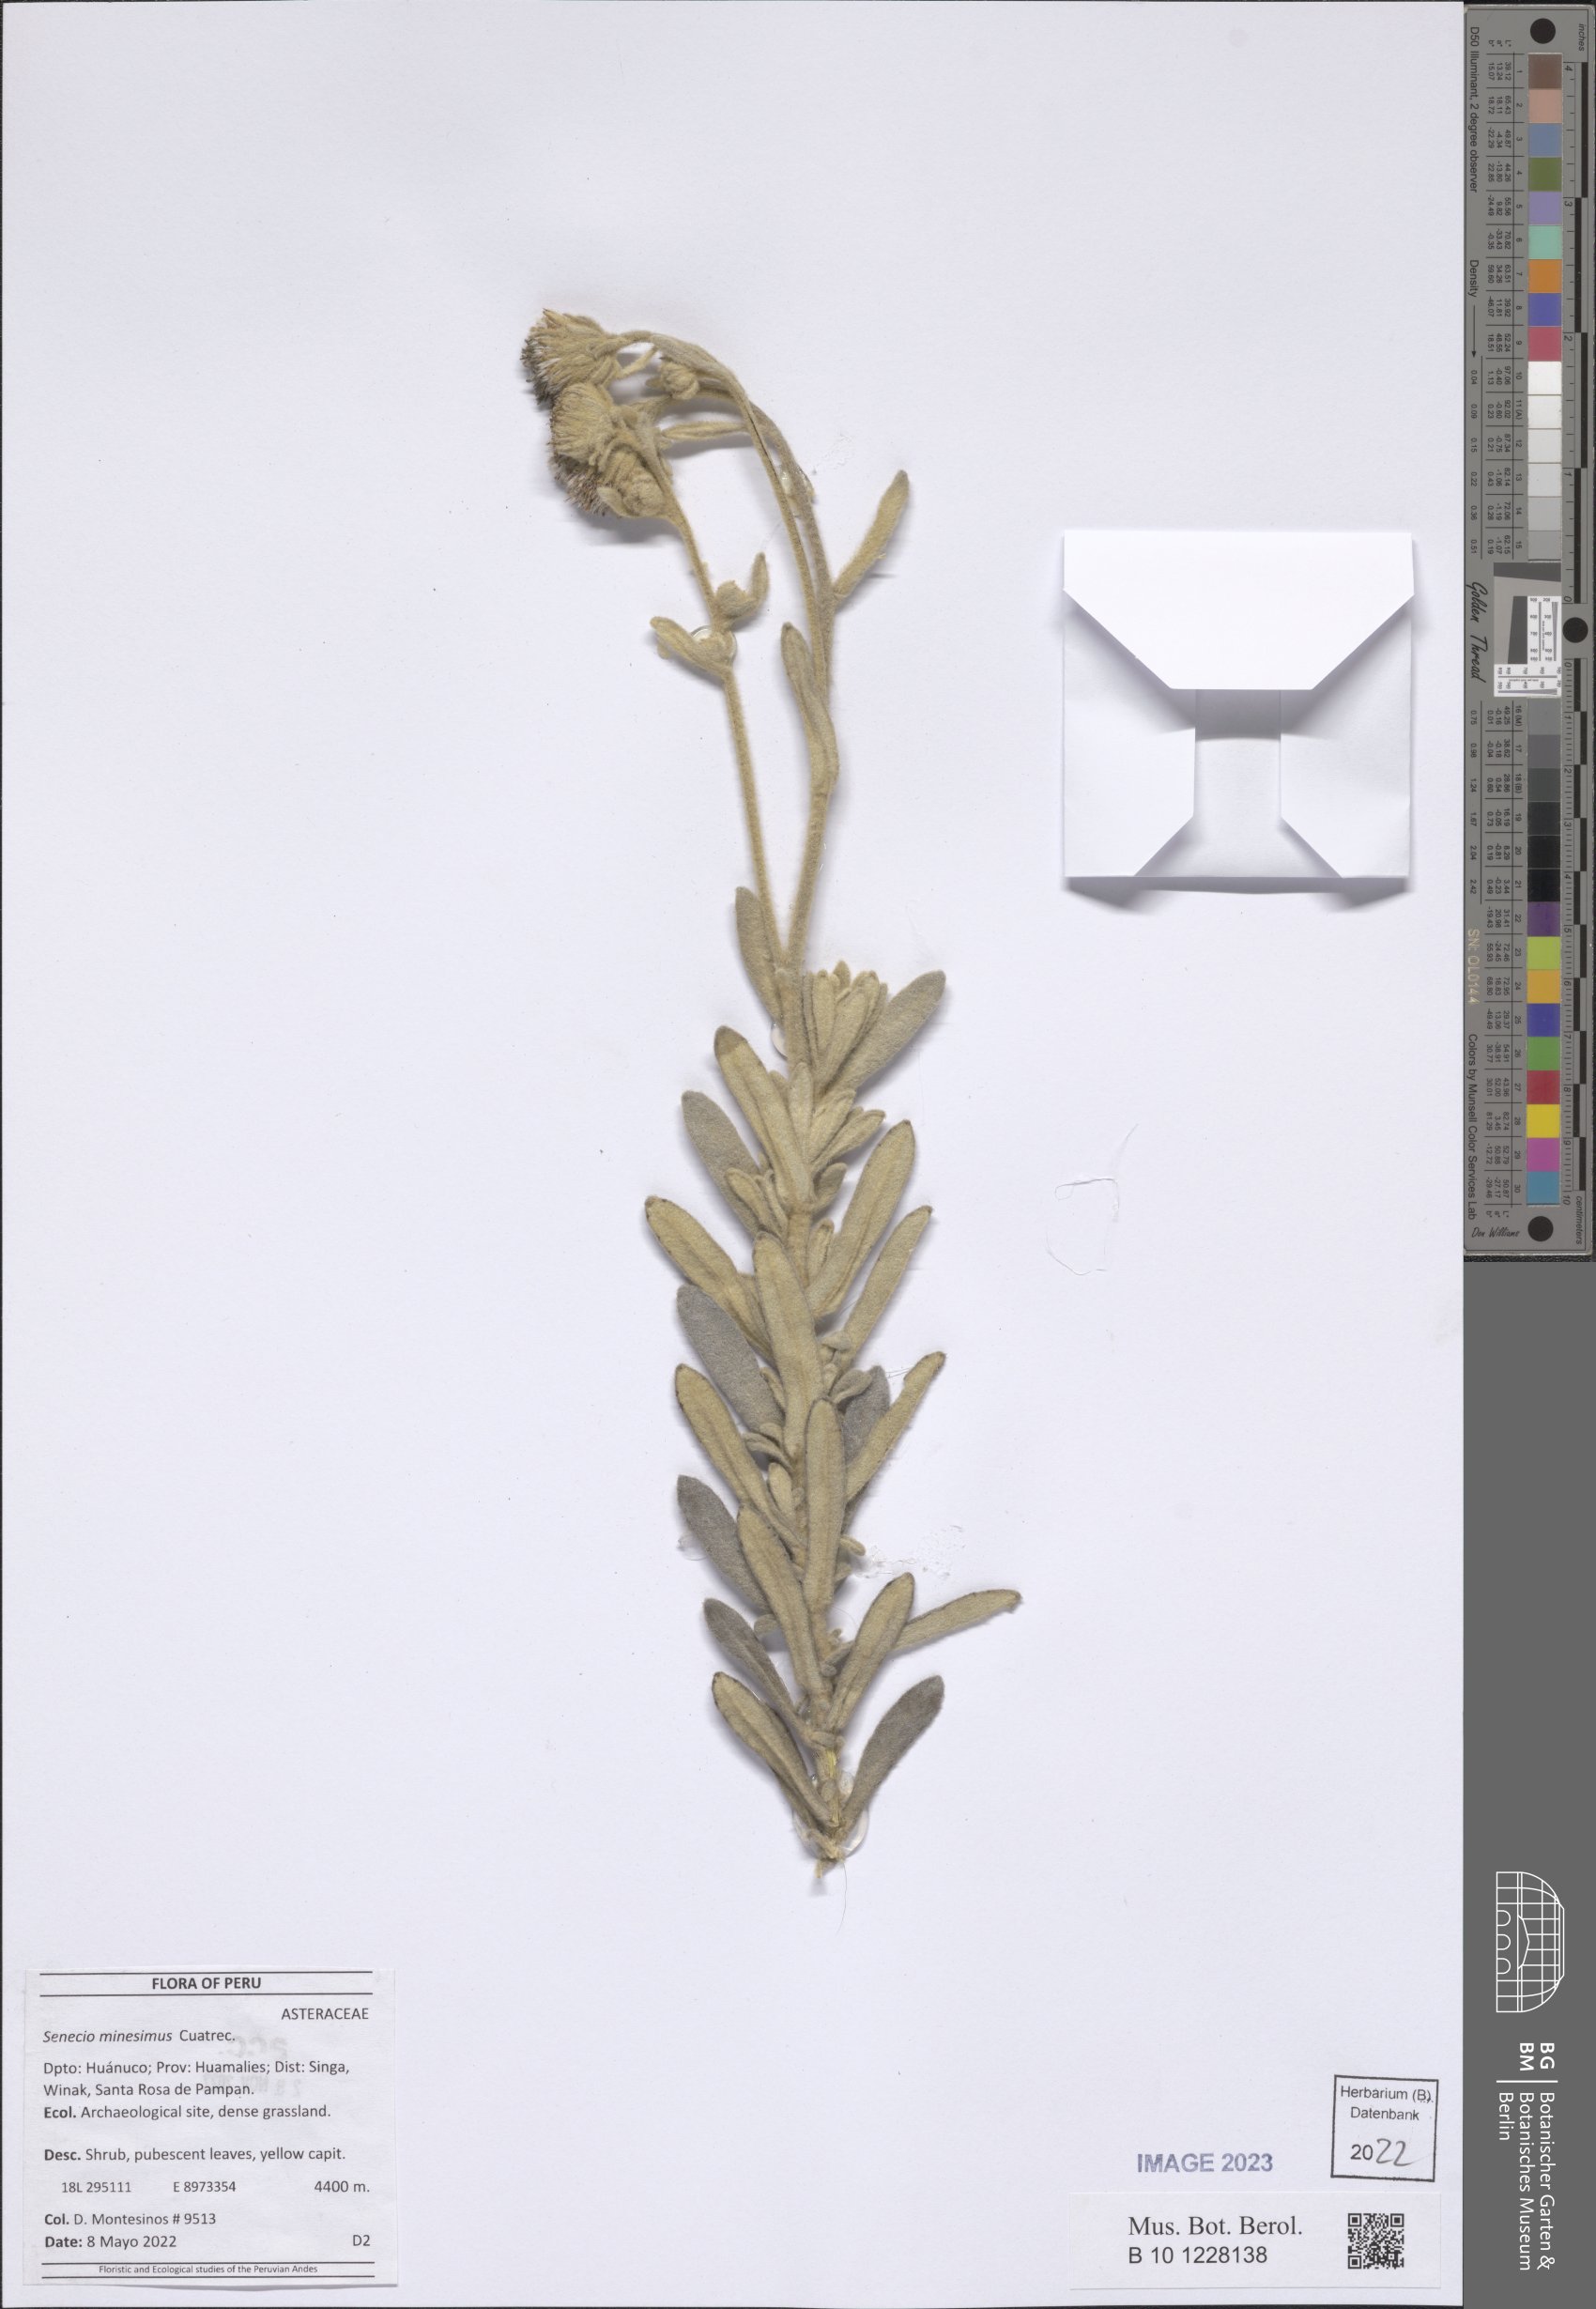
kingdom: Plantae
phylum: Tracheophyta
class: Magnoliopsida
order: Asterales
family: Asteraceae
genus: Senecio
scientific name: Senecio minesinus
